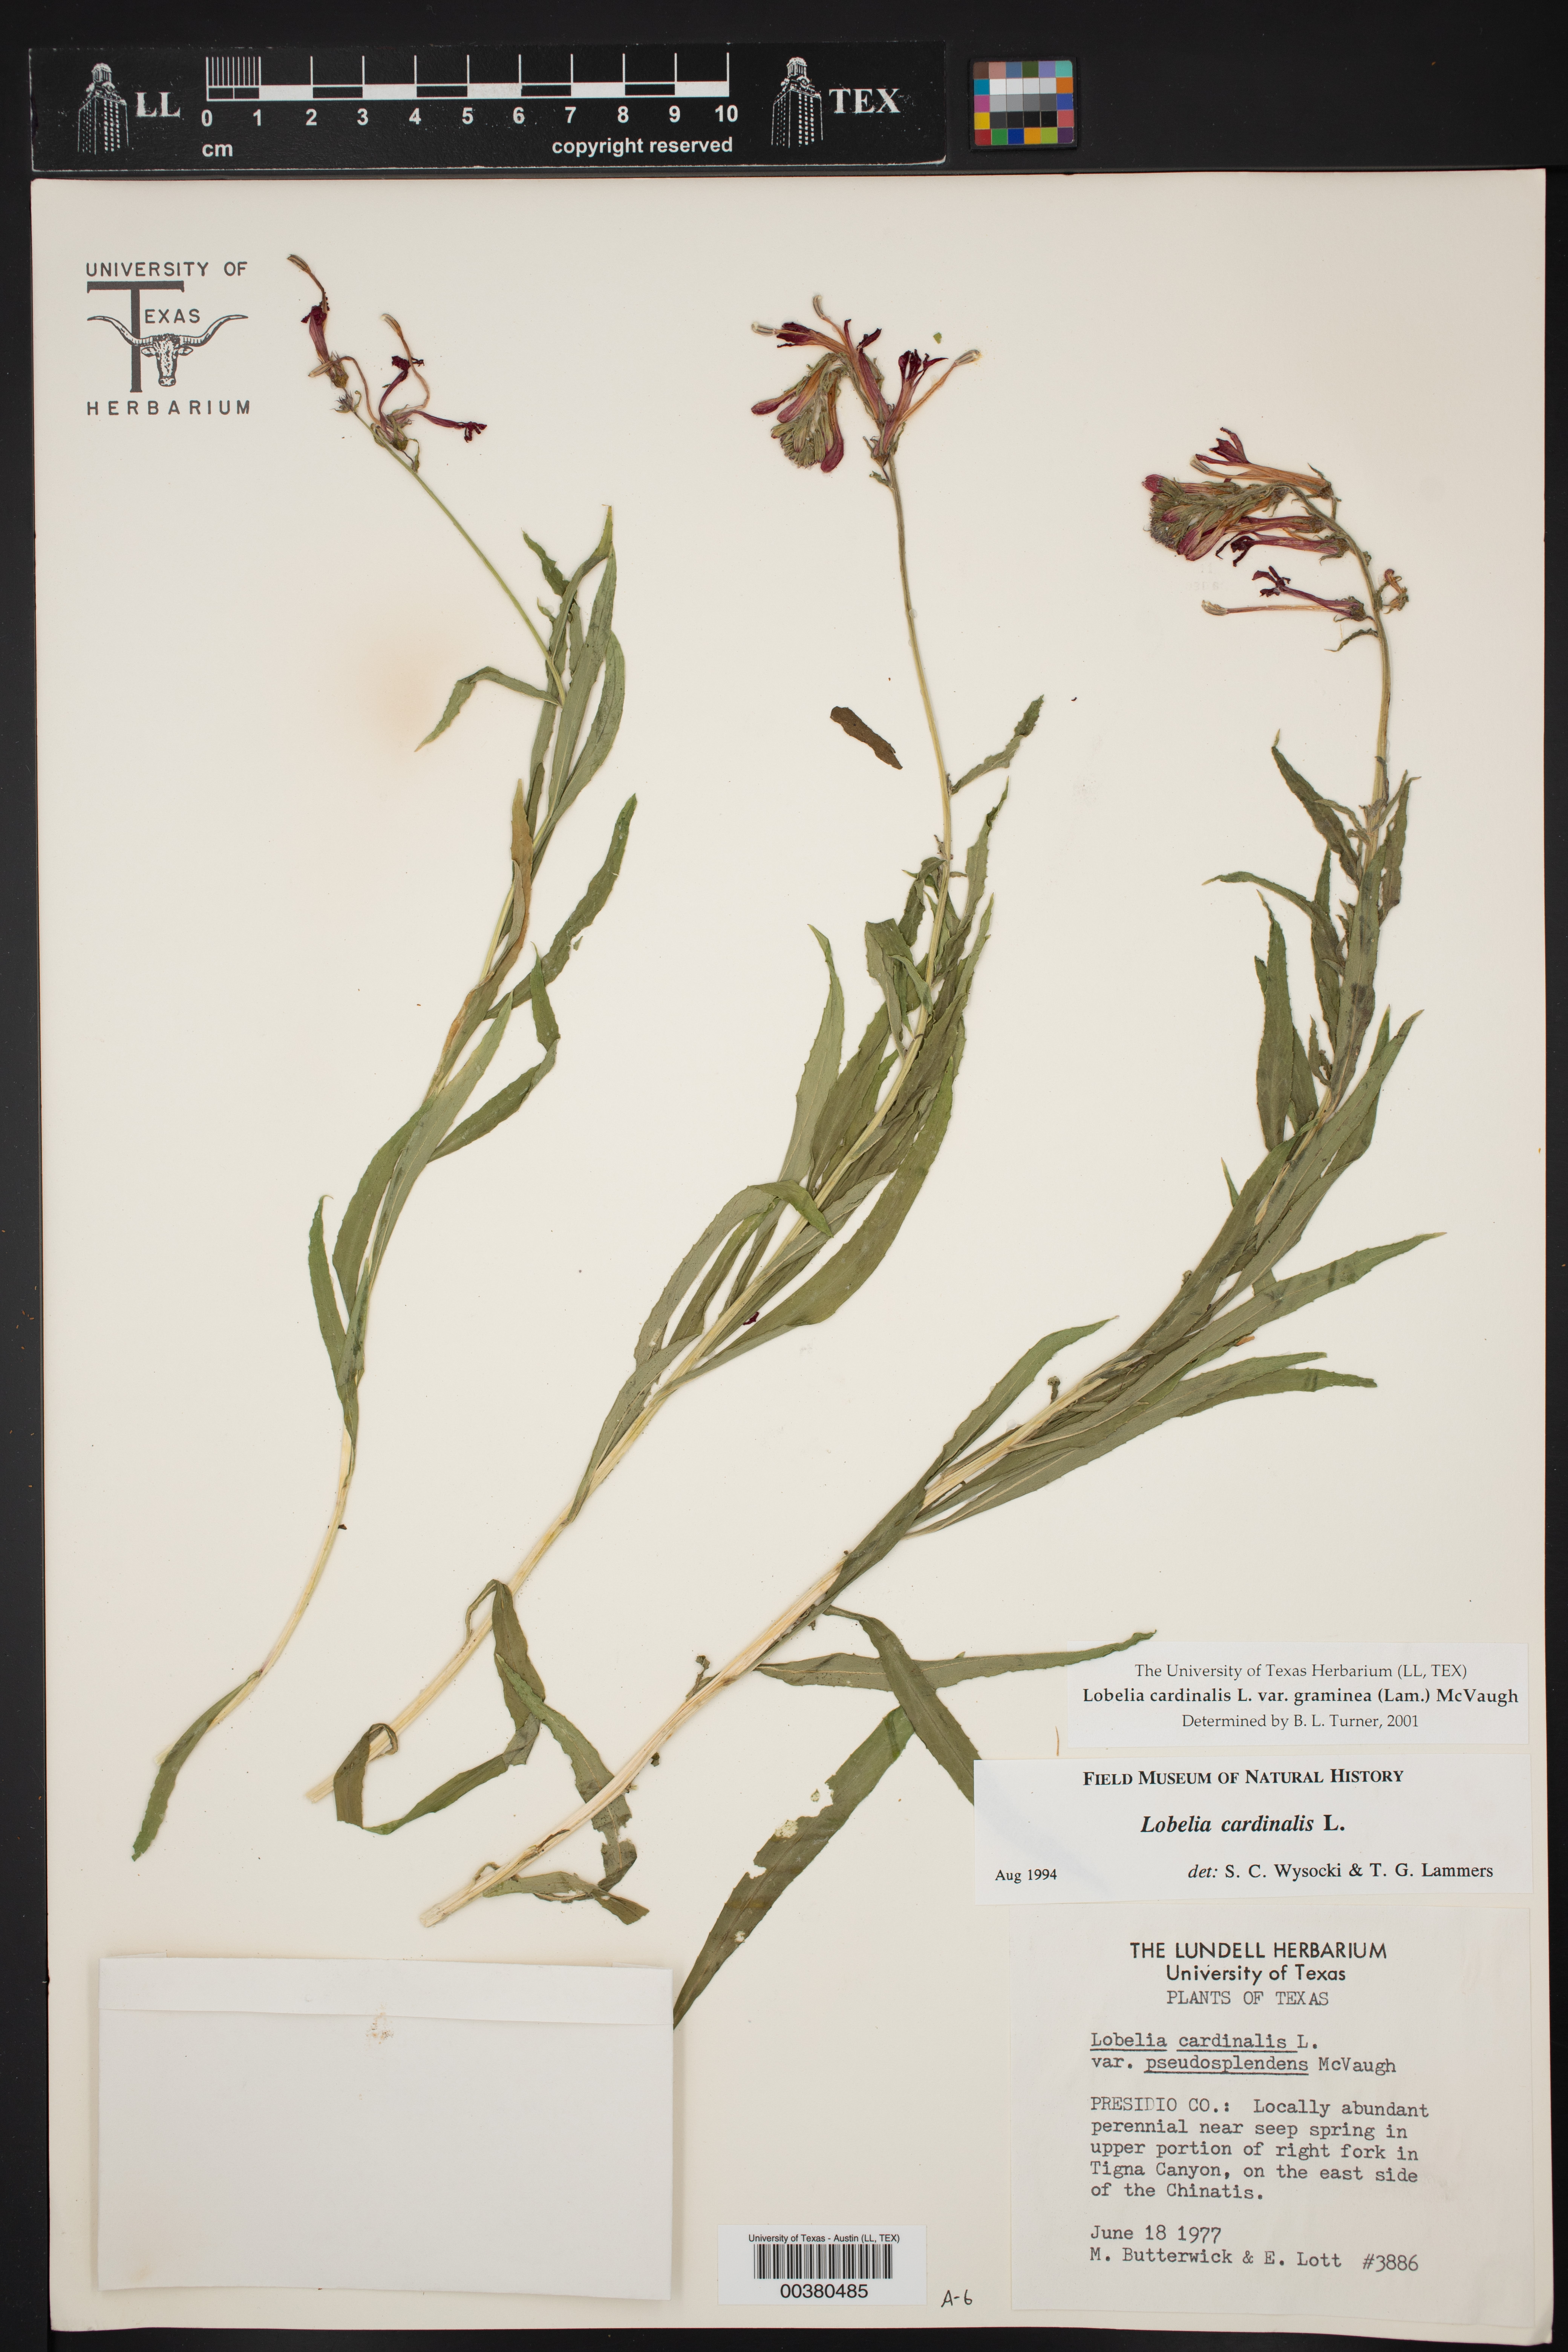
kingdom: Plantae
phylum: Tracheophyta
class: Magnoliopsida
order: Asterales
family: Campanulaceae
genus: Lobelia
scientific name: Lobelia cardinalis
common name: Cardinal flower
